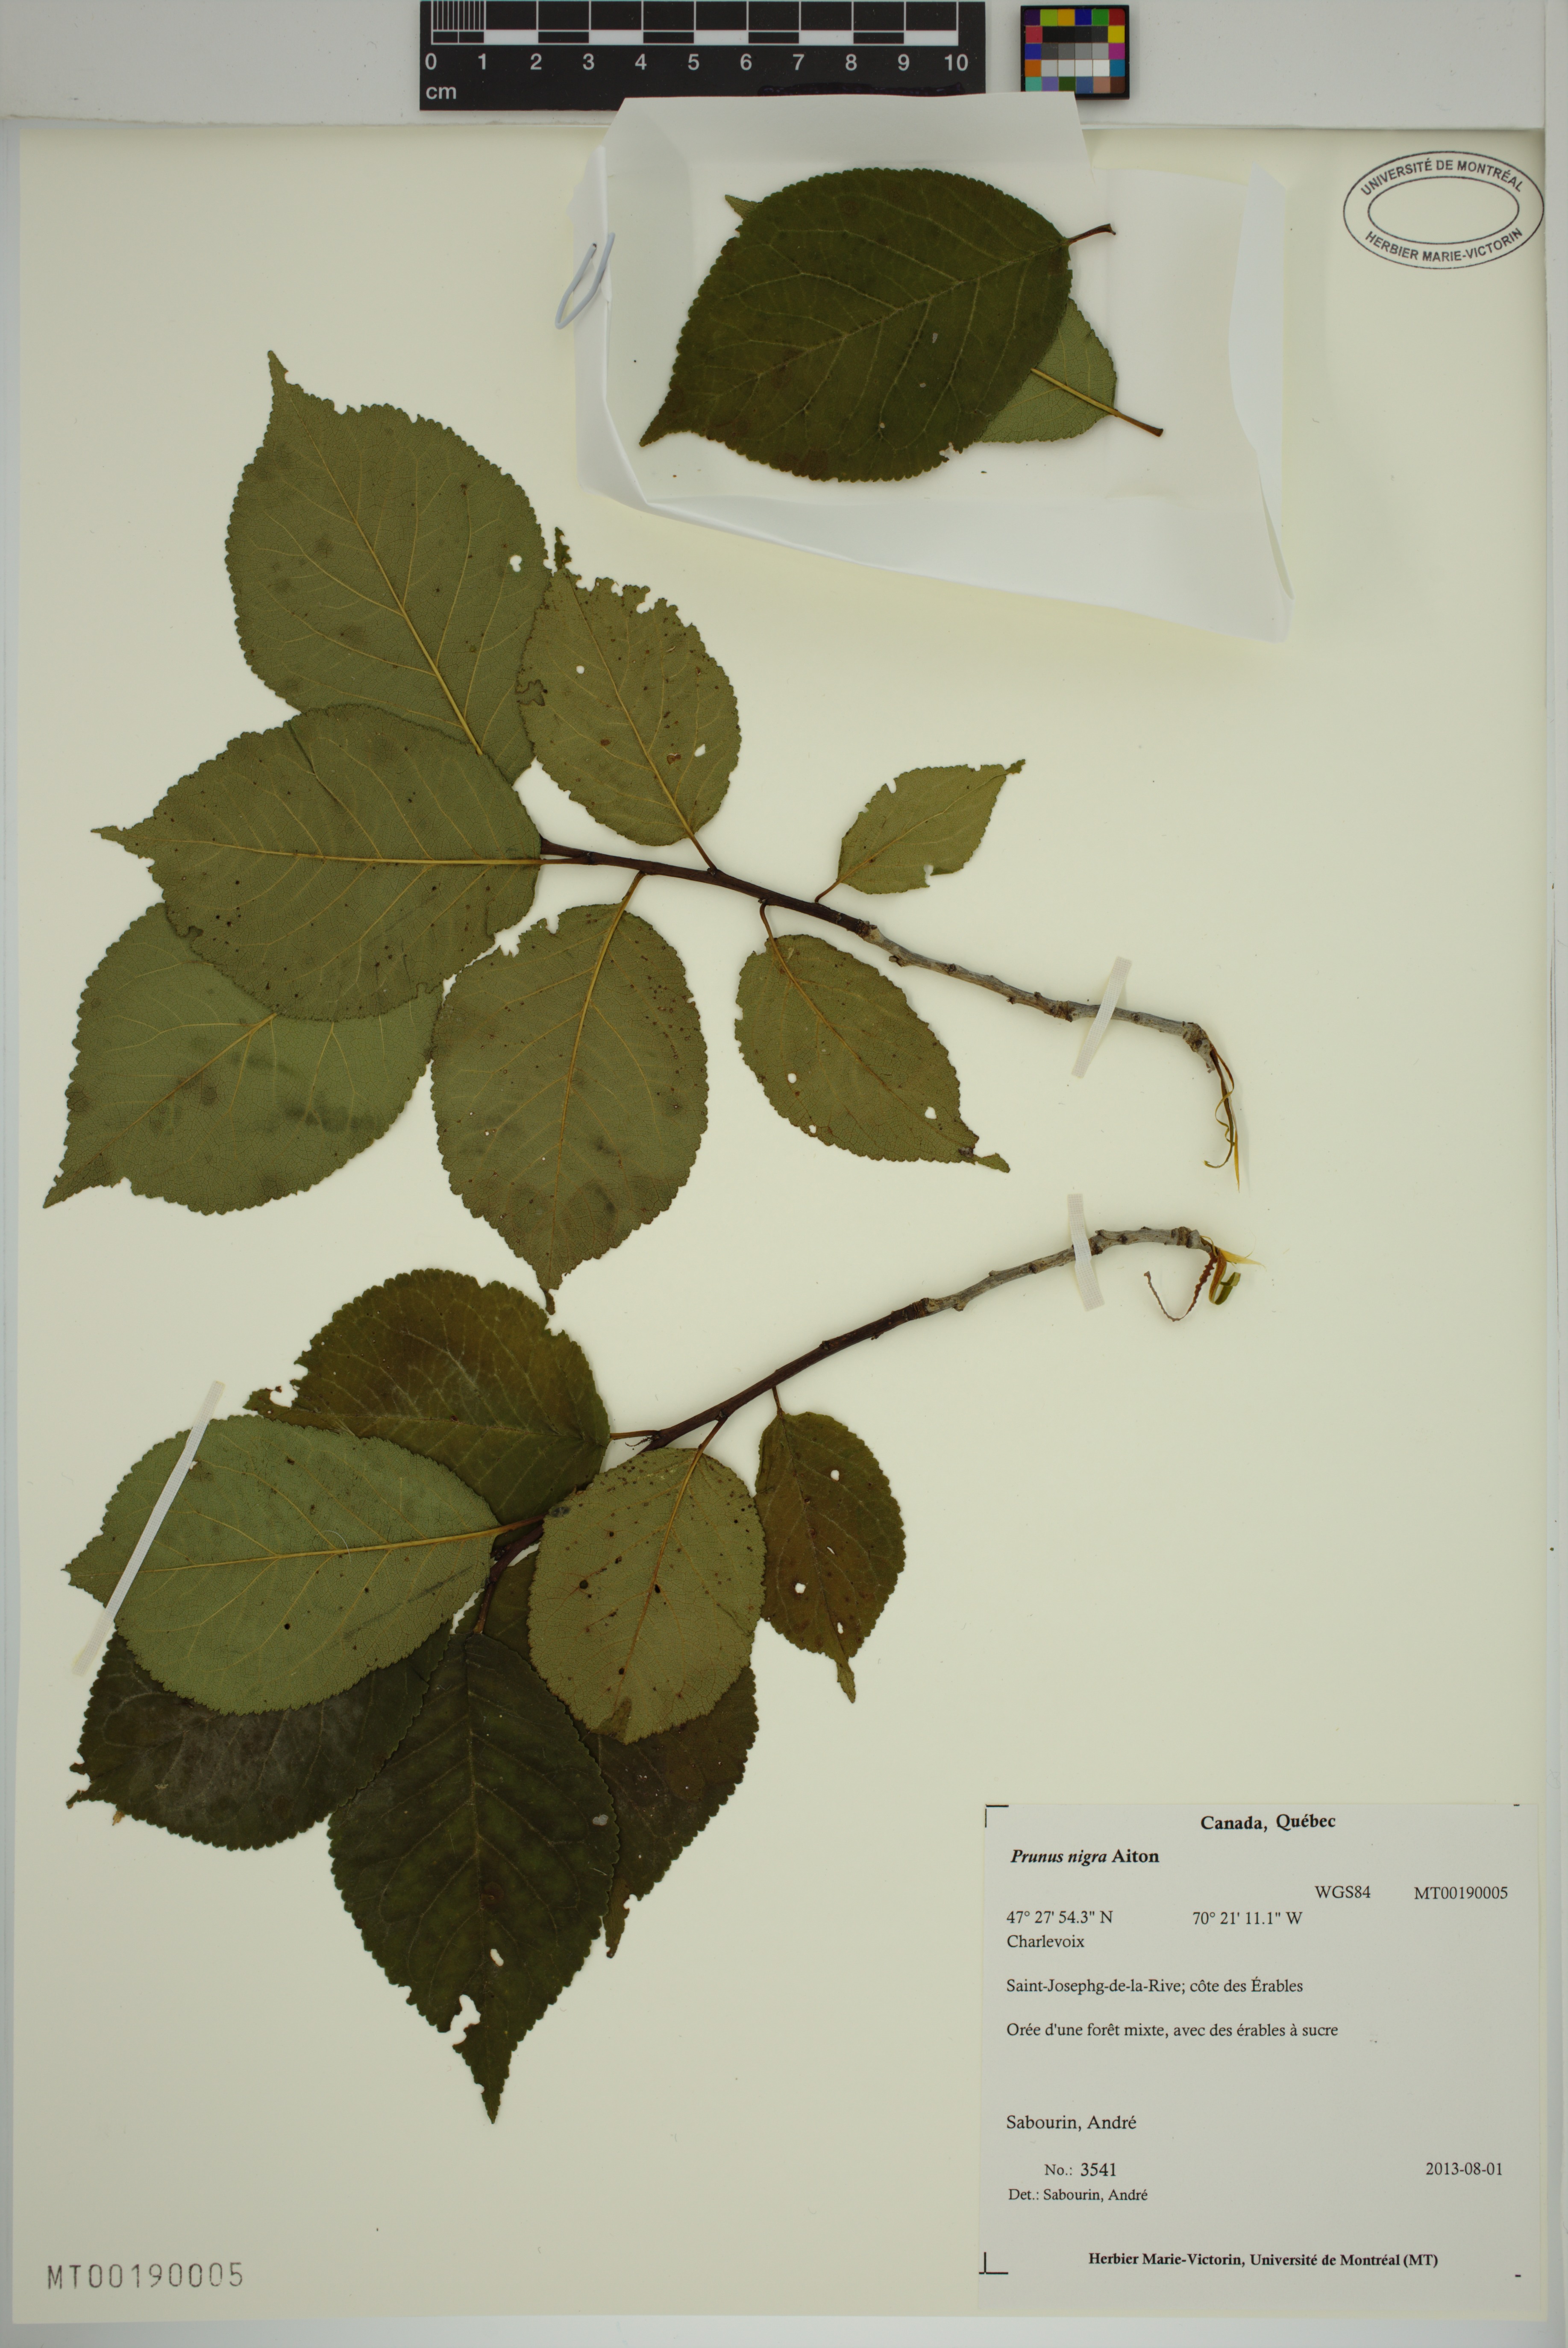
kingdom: Plantae
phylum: Tracheophyta
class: Magnoliopsida
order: Rosales
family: Rosaceae
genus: Prunus
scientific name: Prunus nigra
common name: Black plum
